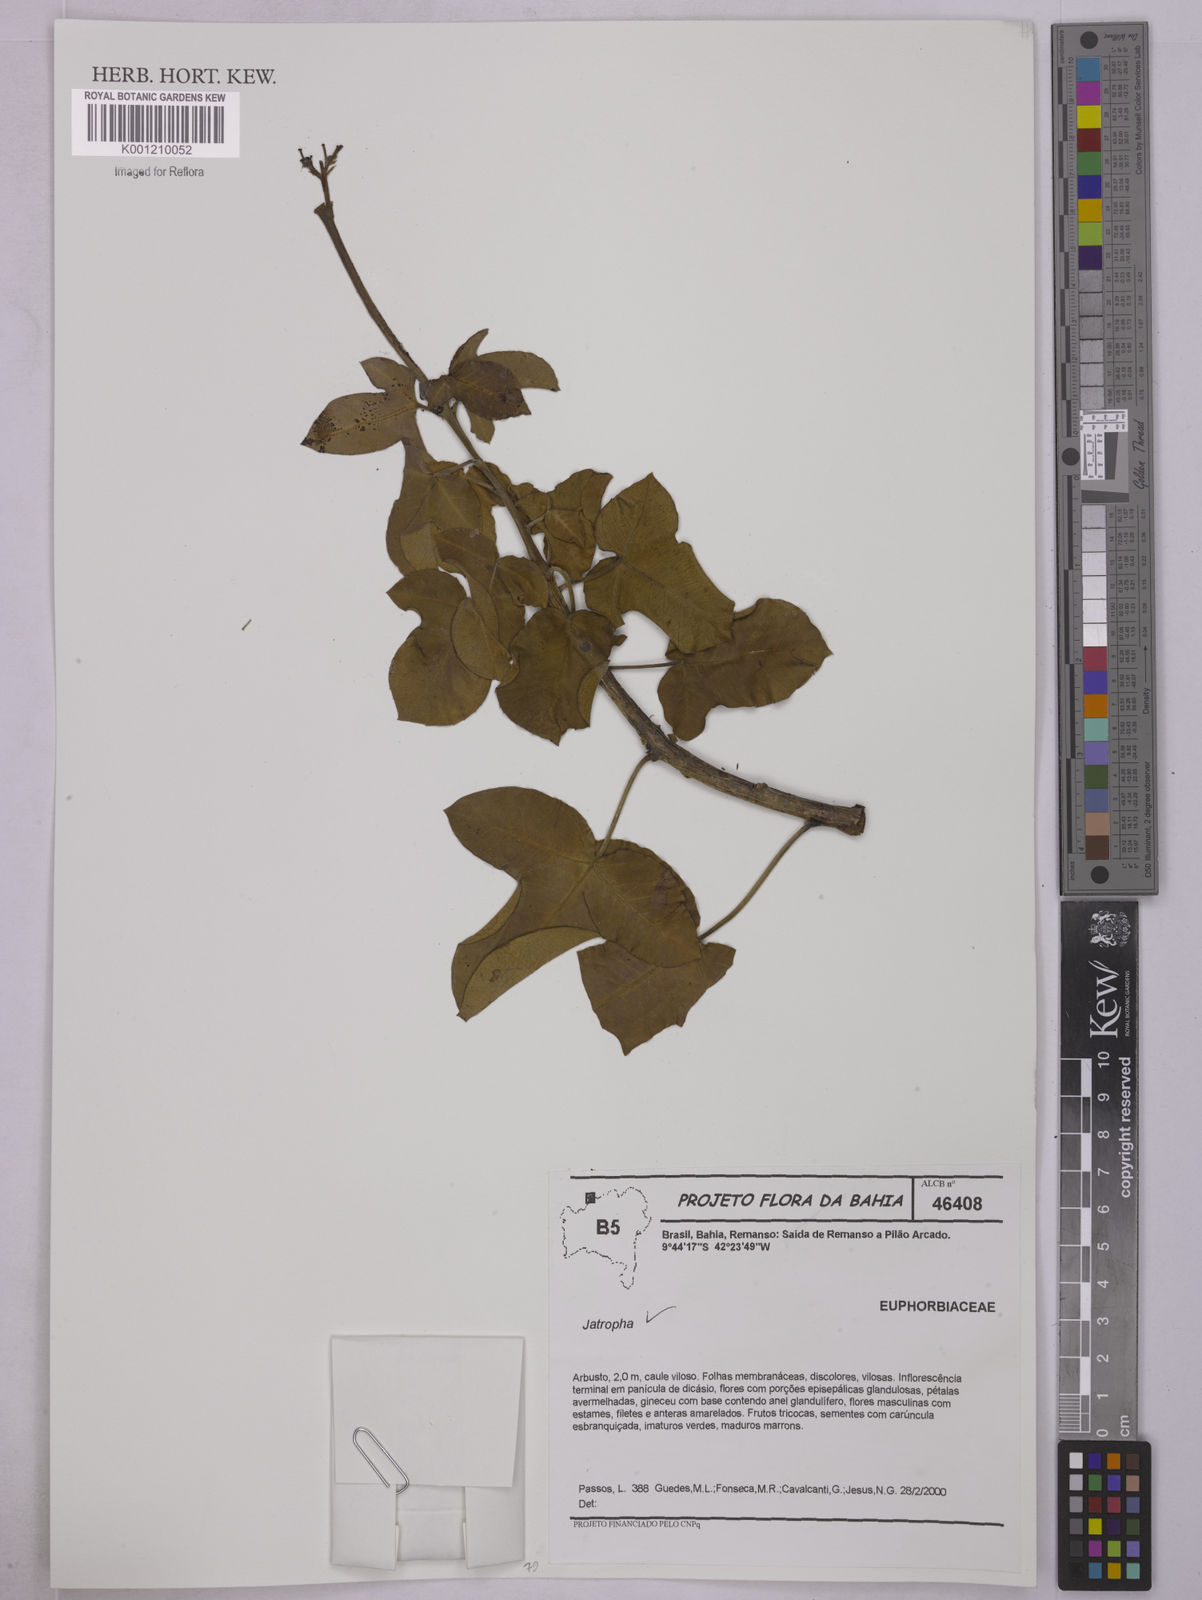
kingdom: Plantae
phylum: Tracheophyta
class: Magnoliopsida
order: Malpighiales
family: Euphorbiaceae
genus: Jatropha
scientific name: Jatropha
